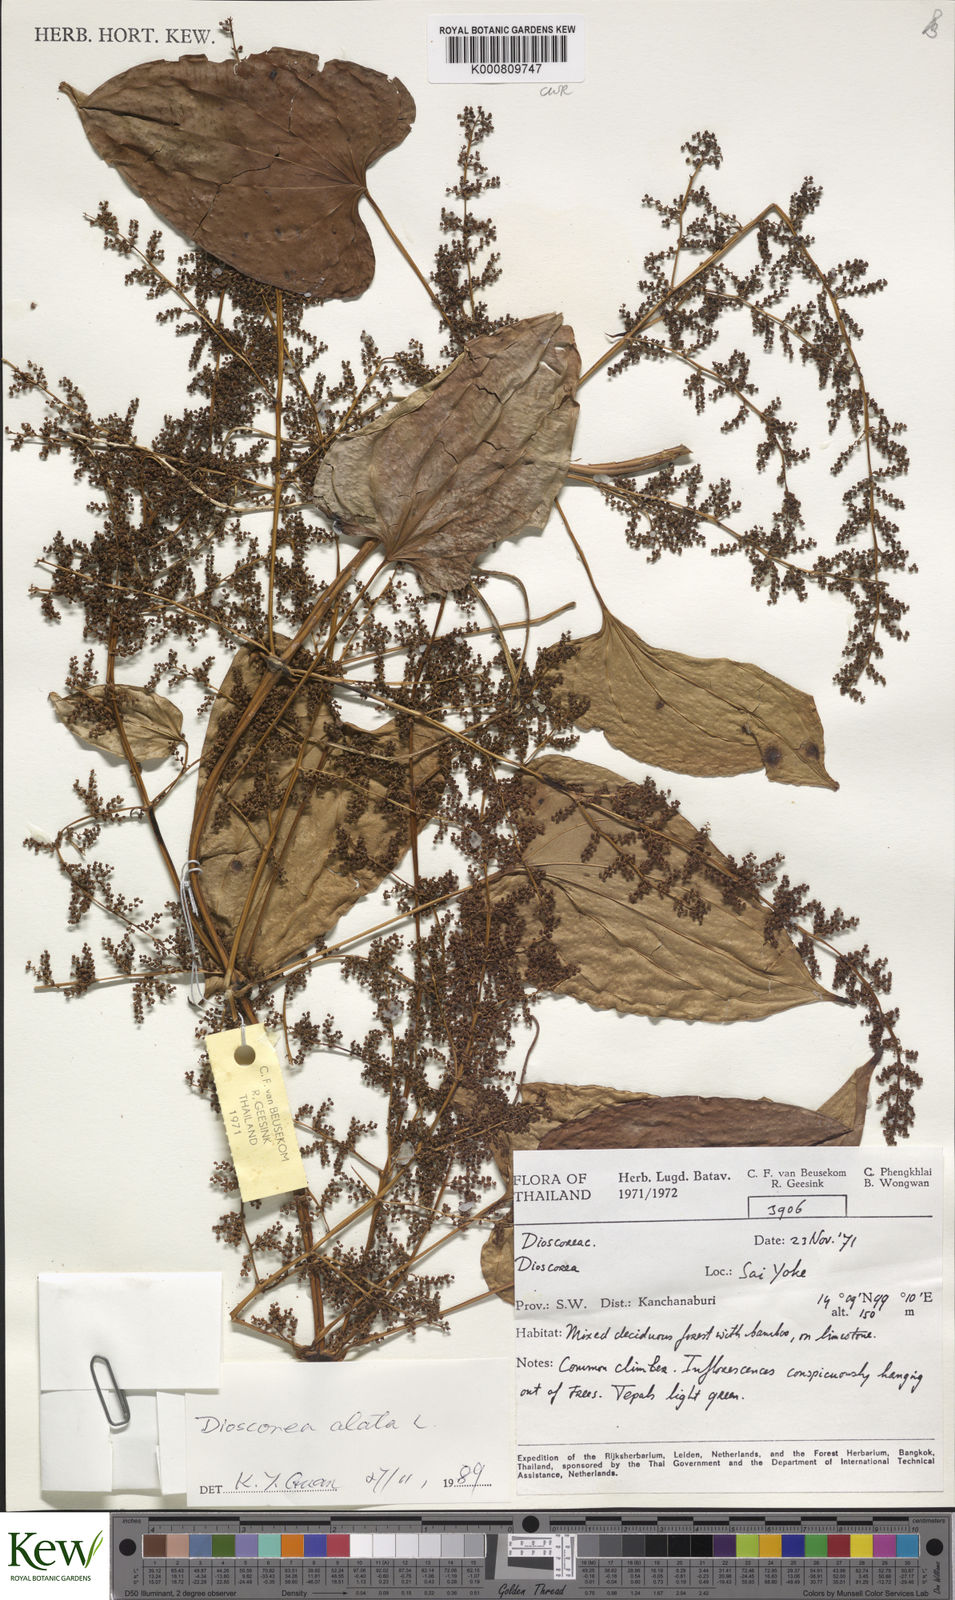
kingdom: Plantae
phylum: Tracheophyta
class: Liliopsida
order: Dioscoreales
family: Dioscoreaceae
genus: Dioscorea
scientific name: Dioscorea alata
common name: Water yam
